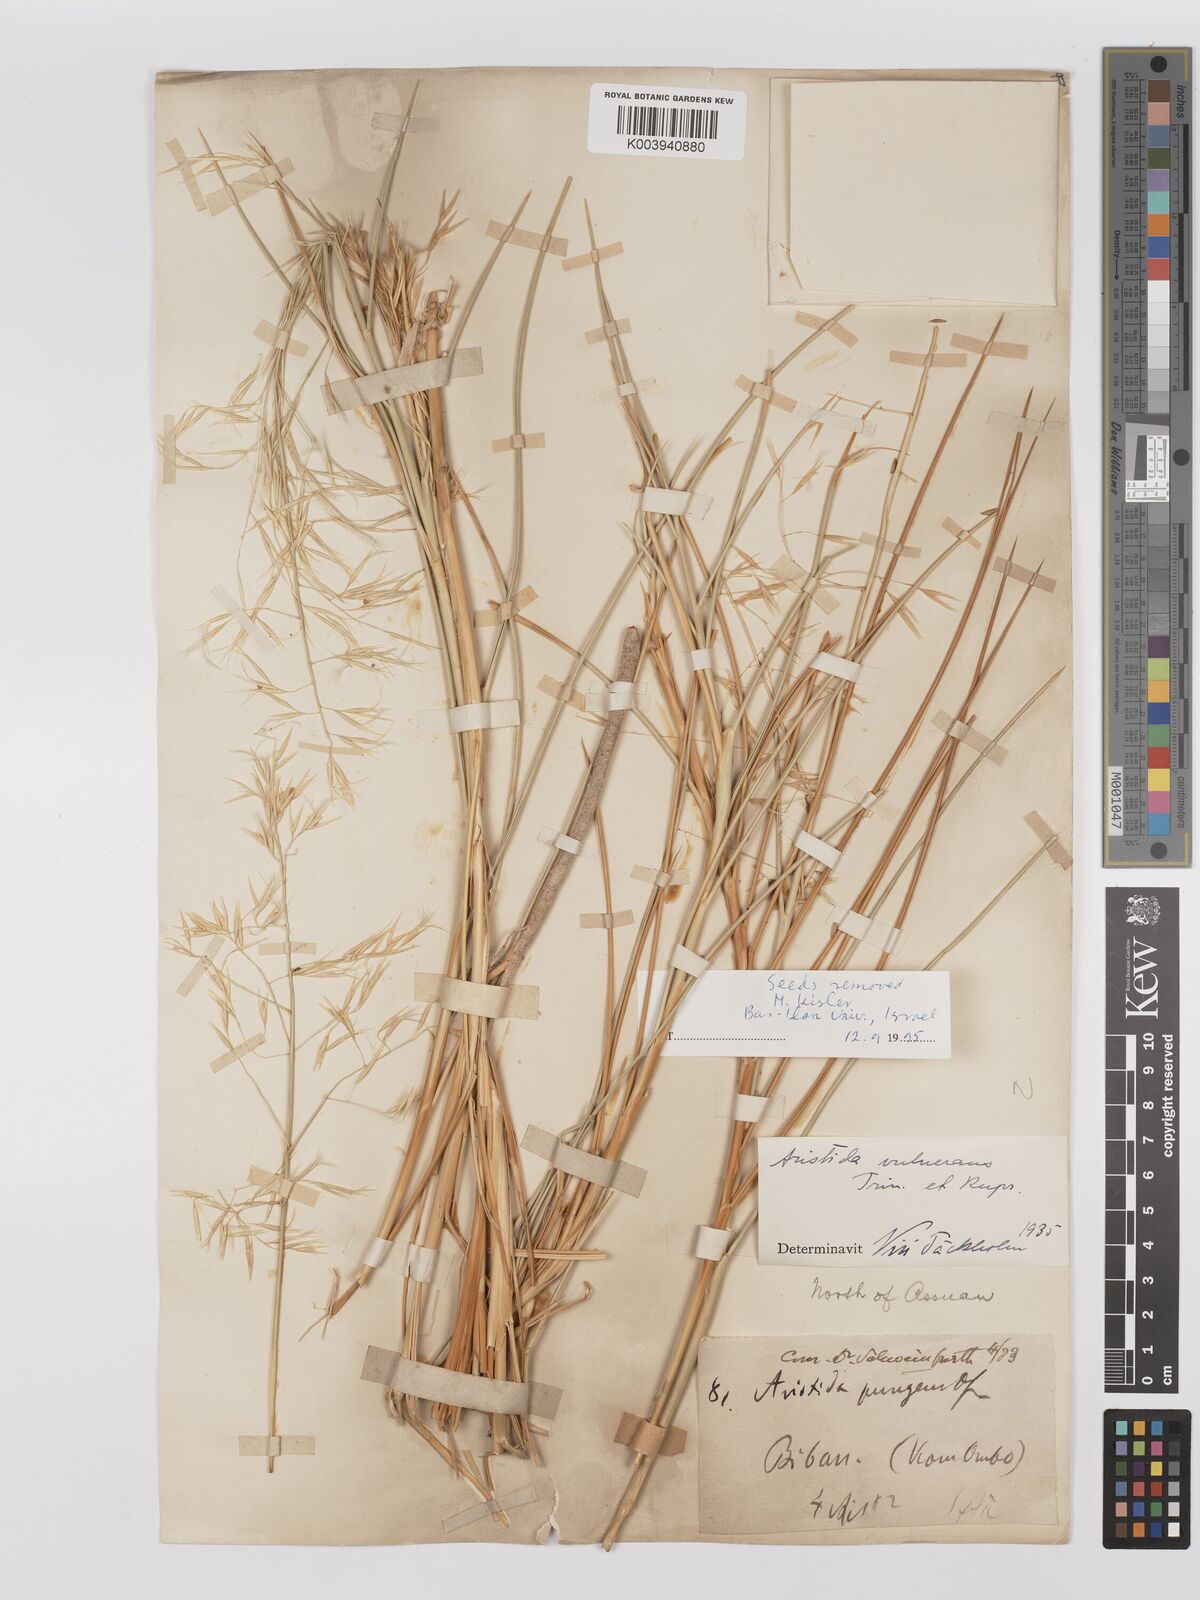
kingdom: Plantae
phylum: Tracheophyta
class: Liliopsida
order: Poales
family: Poaceae
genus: Stipagrostis
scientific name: Stipagrostis vulnerans
